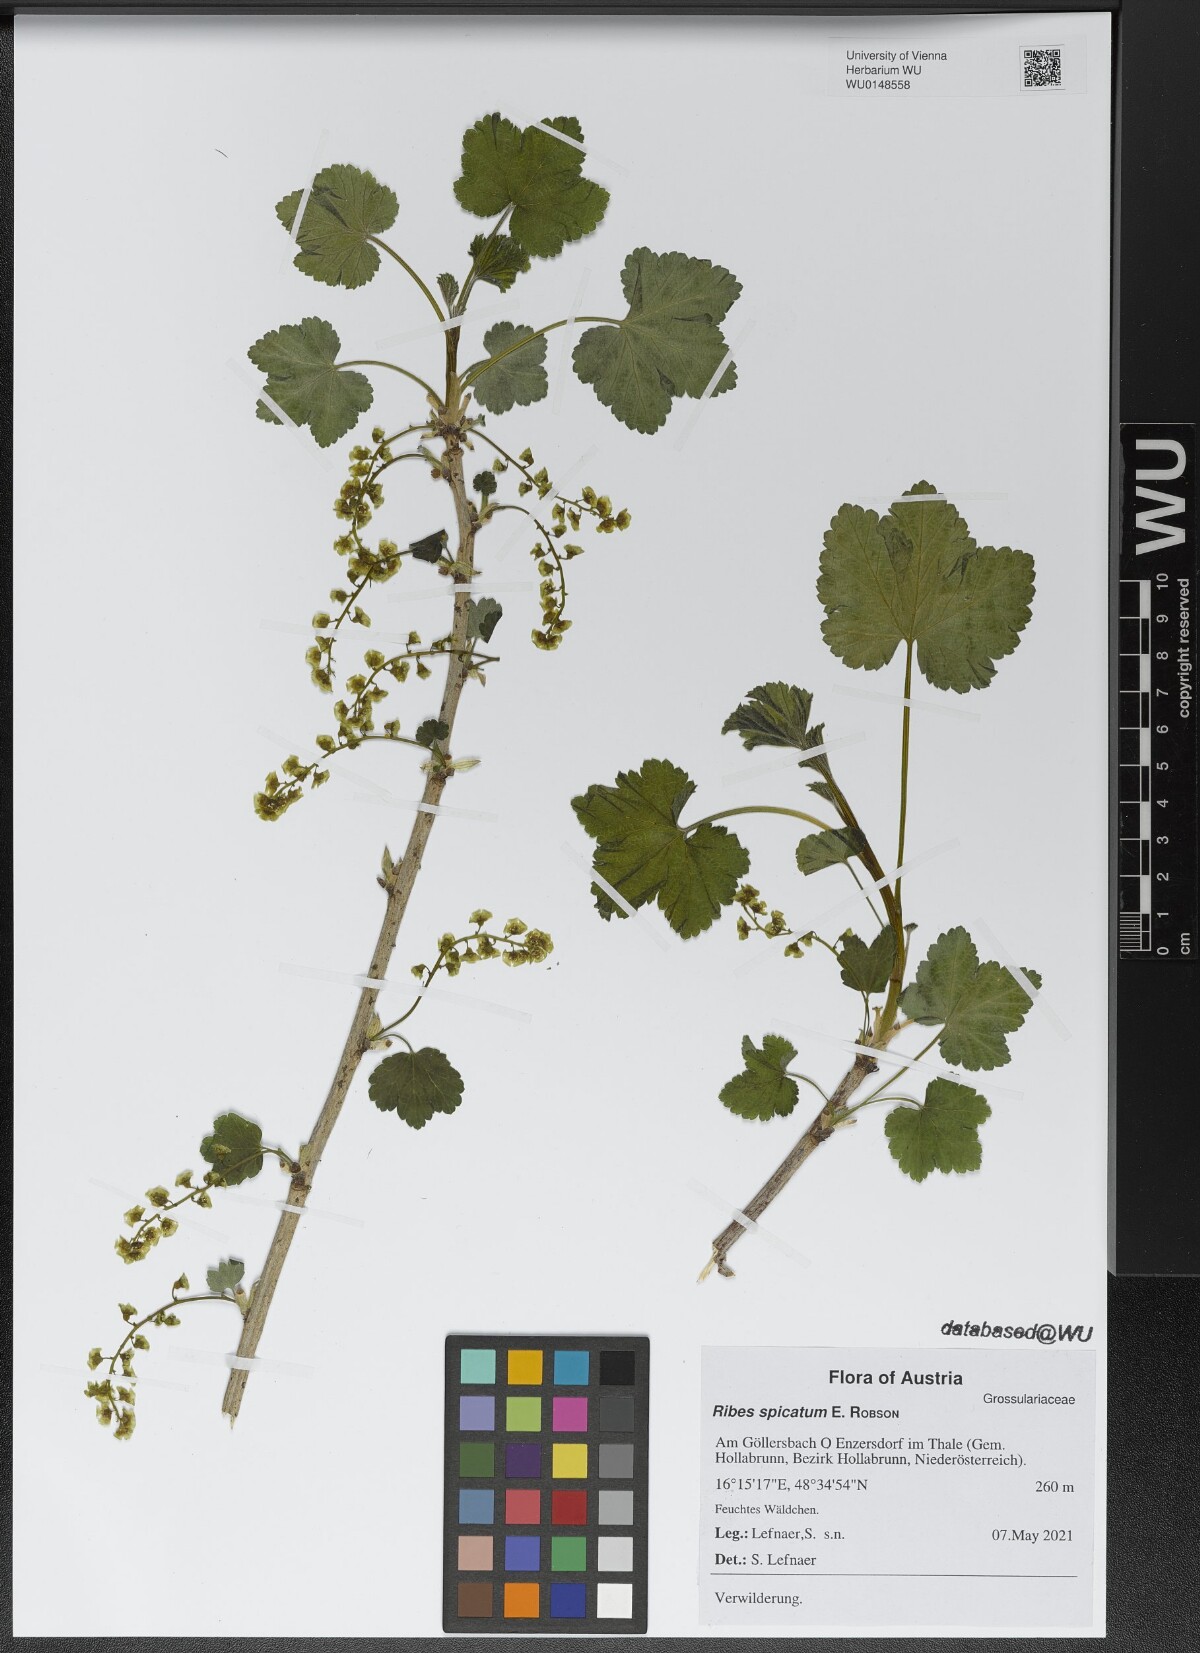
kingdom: Plantae
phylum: Tracheophyta
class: Magnoliopsida
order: Saxifragales
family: Grossulariaceae
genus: Ribes
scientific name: Ribes spicatum
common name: Downy currant
